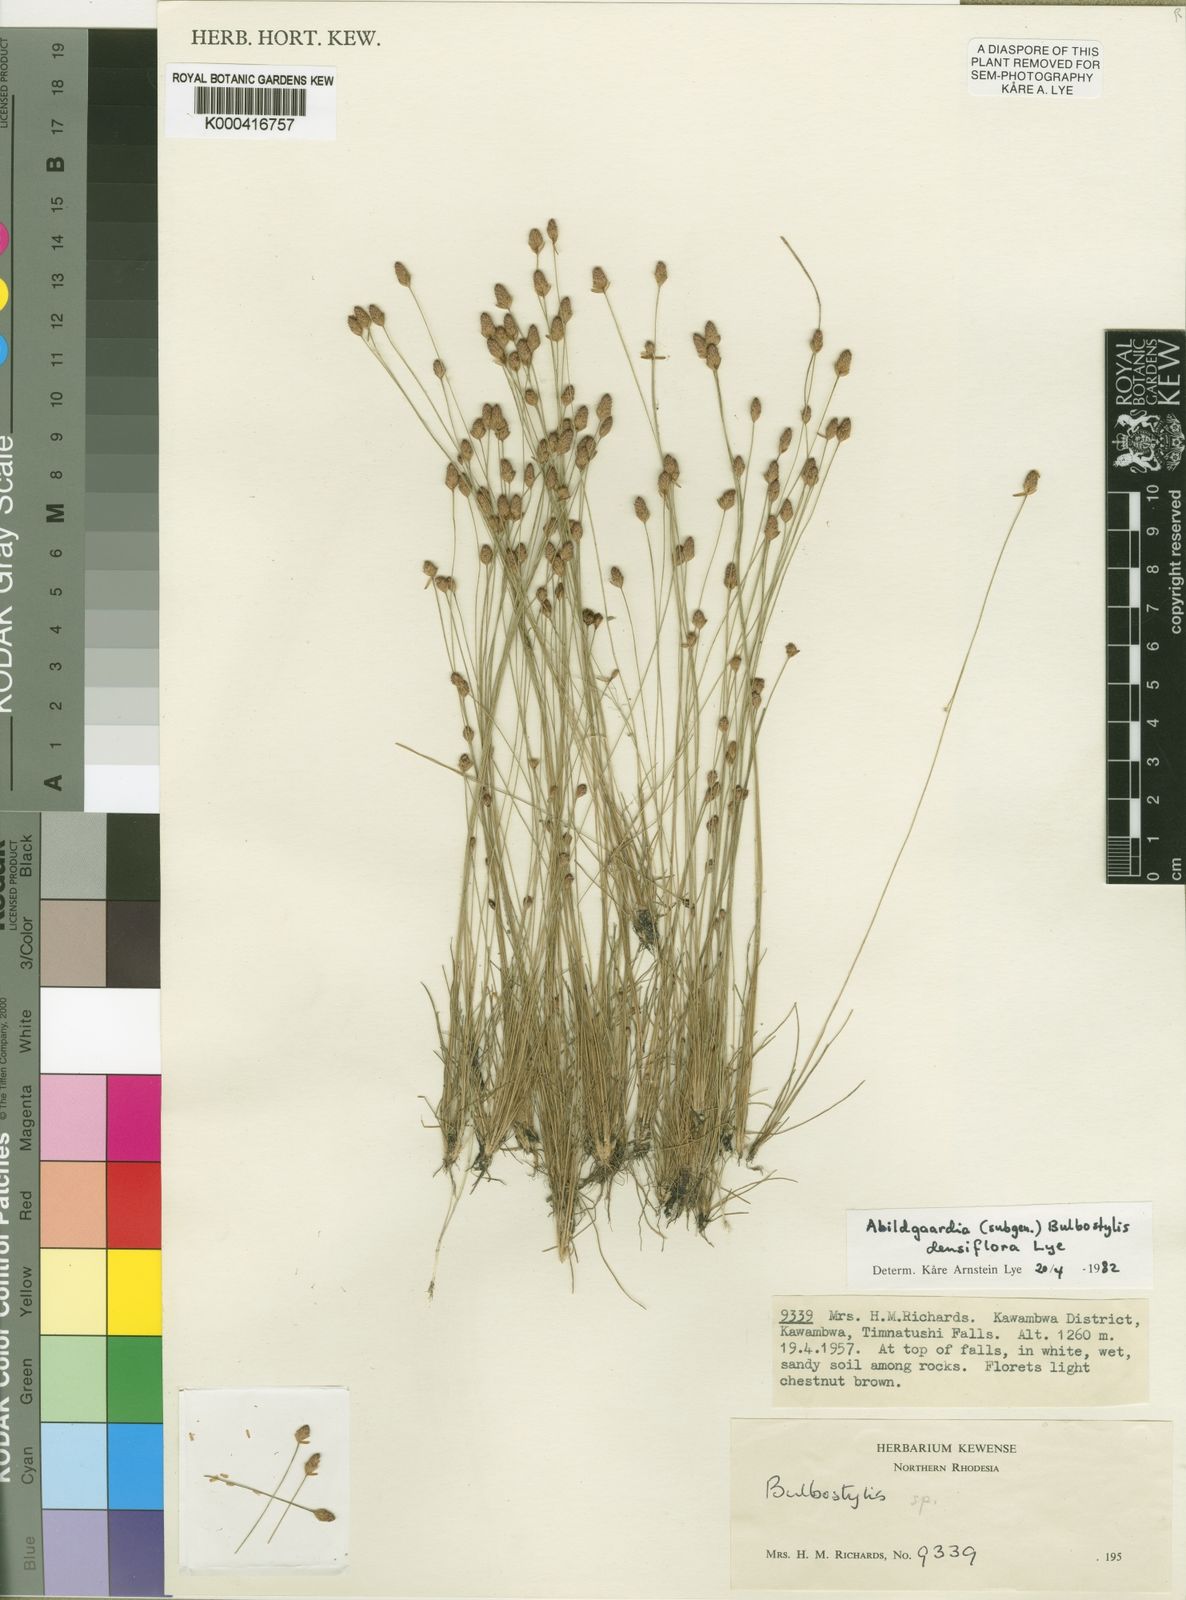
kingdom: Plantae
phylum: Tracheophyta
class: Liliopsida
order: Poales
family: Cyperaceae
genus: Bulbostylis
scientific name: Bulbostylis densiflora
